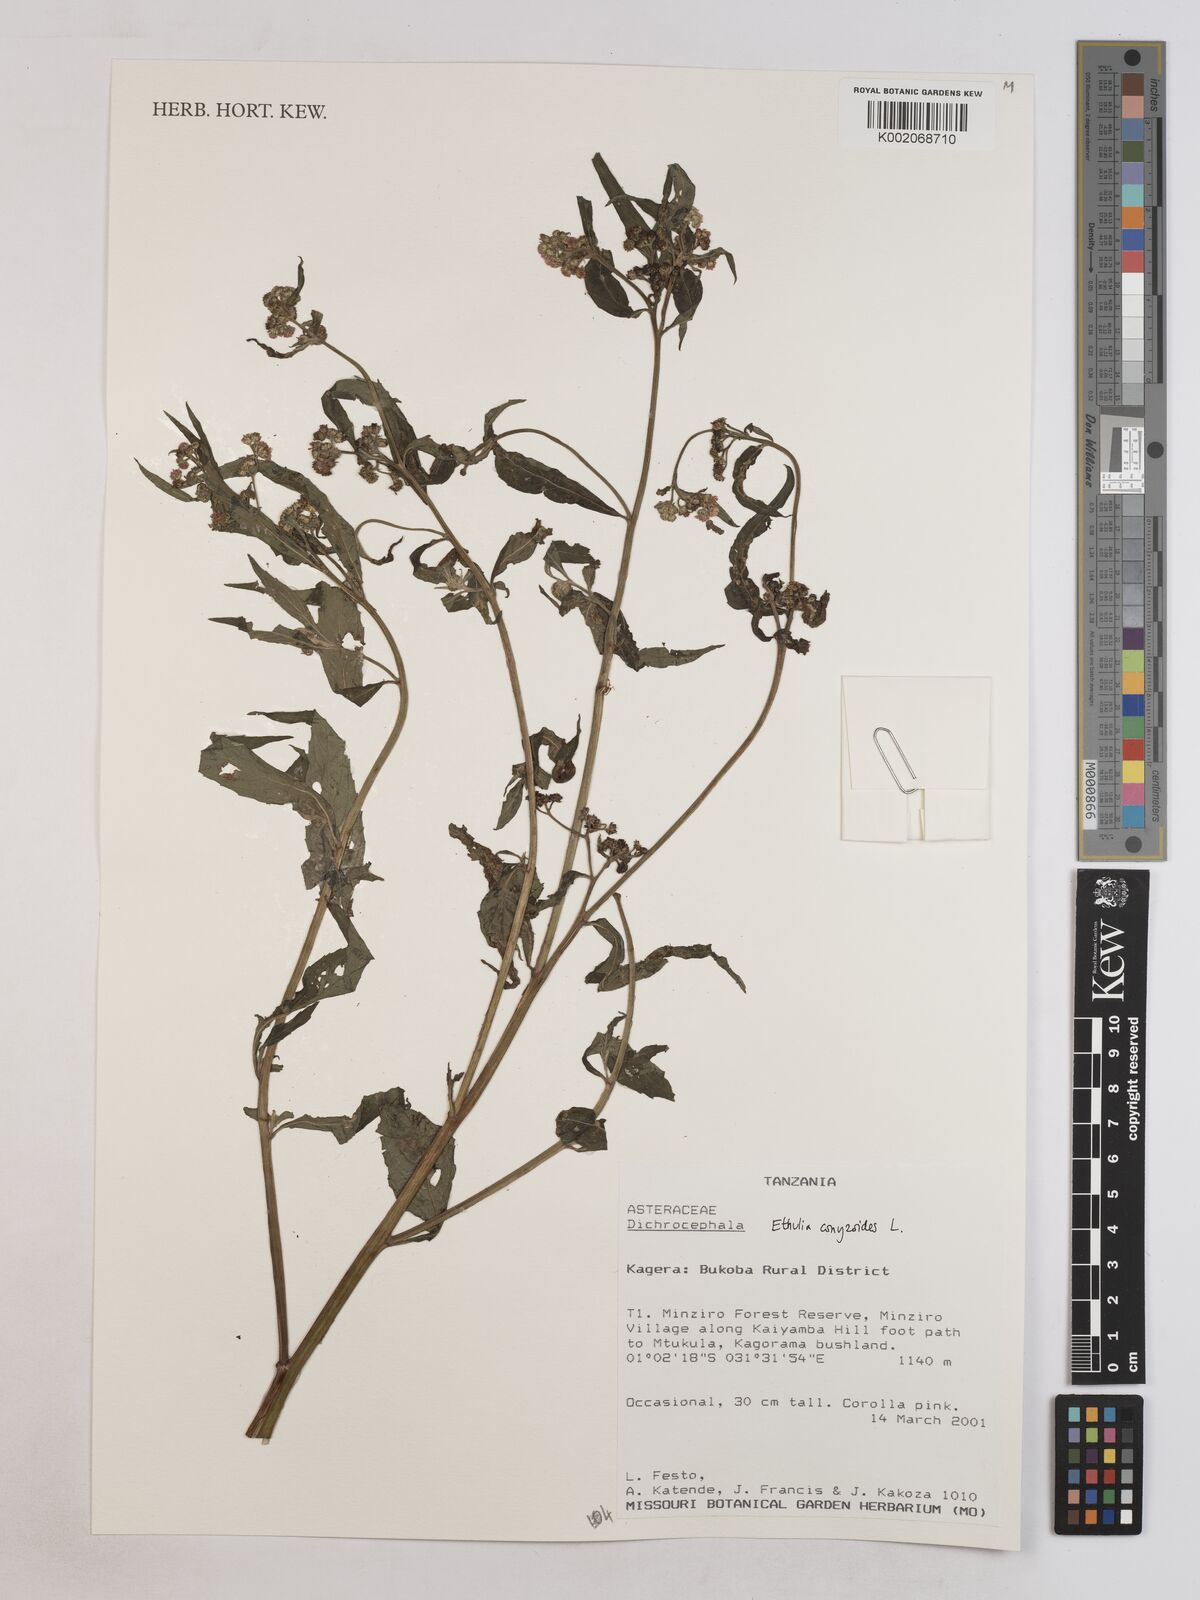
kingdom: Plantae
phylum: Tracheophyta
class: Magnoliopsida
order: Asterales
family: Asteraceae
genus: Ethulia
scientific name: Ethulia
